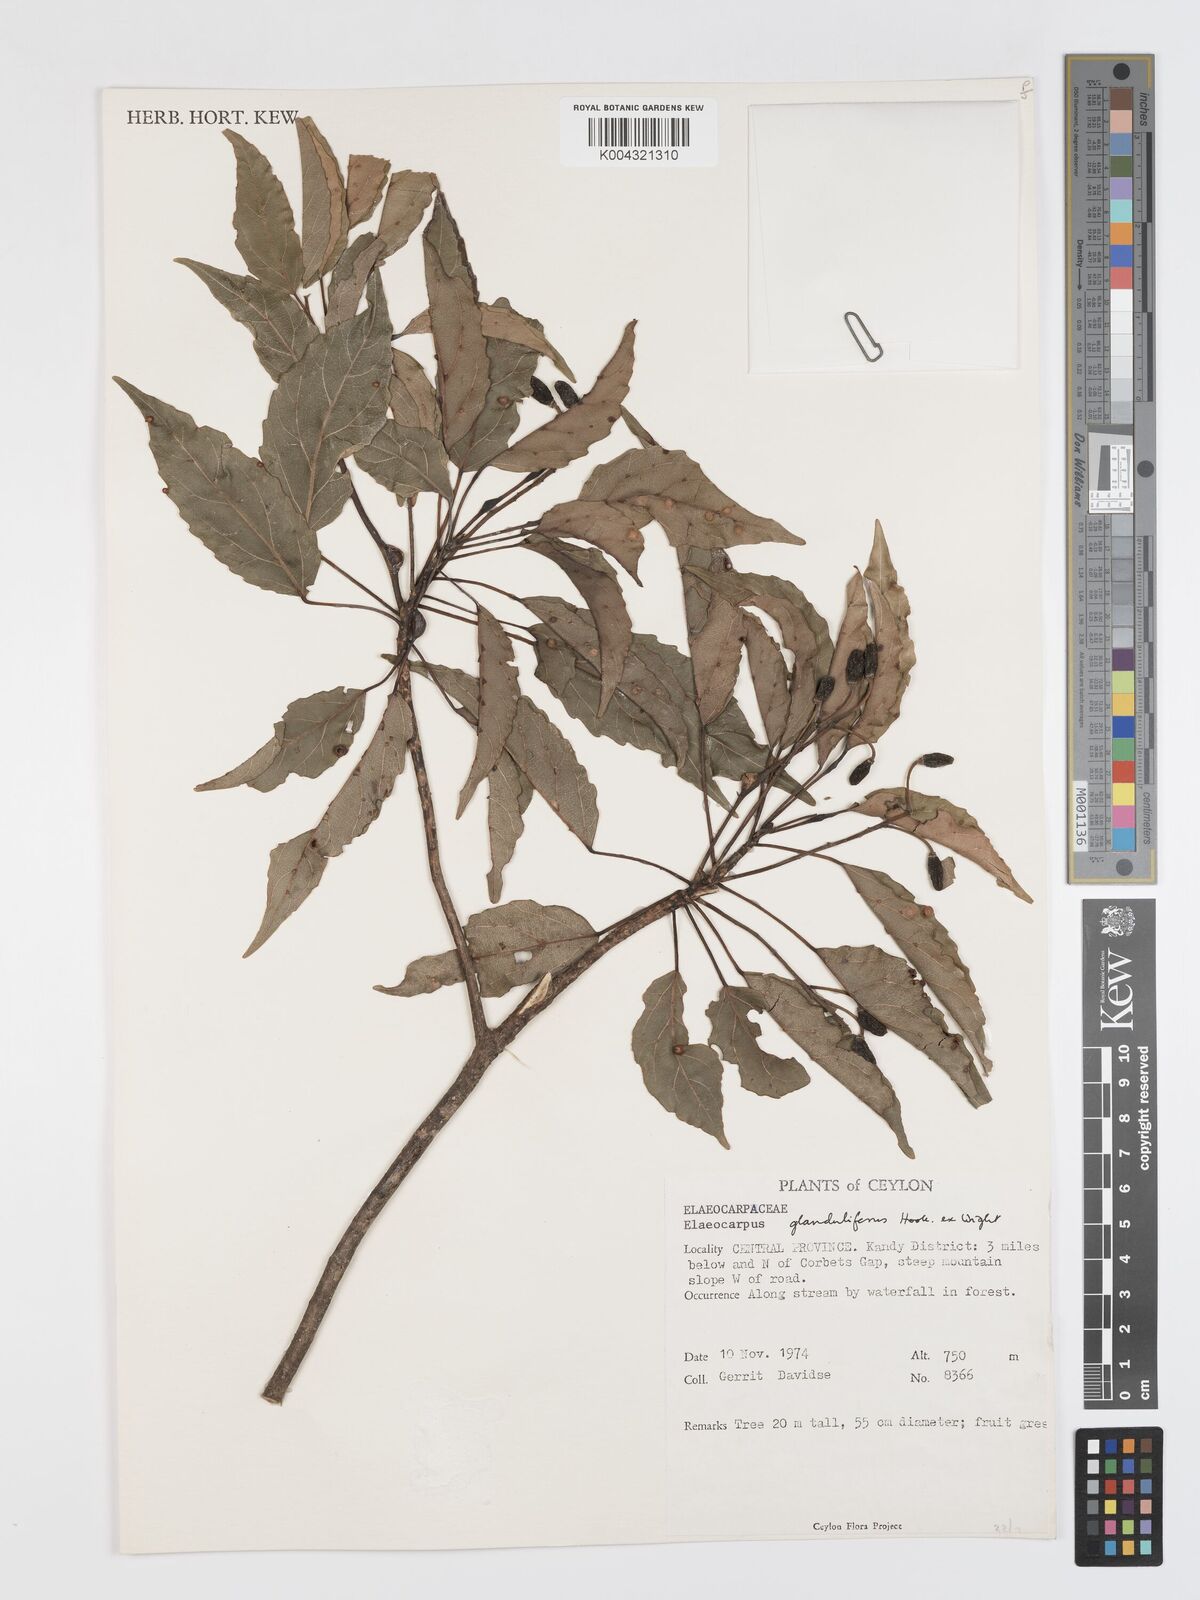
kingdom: Plantae
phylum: Tracheophyta
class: Magnoliopsida
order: Oxalidales
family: Elaeocarpaceae
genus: Elaeocarpus
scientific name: Elaeocarpus glandulifer
